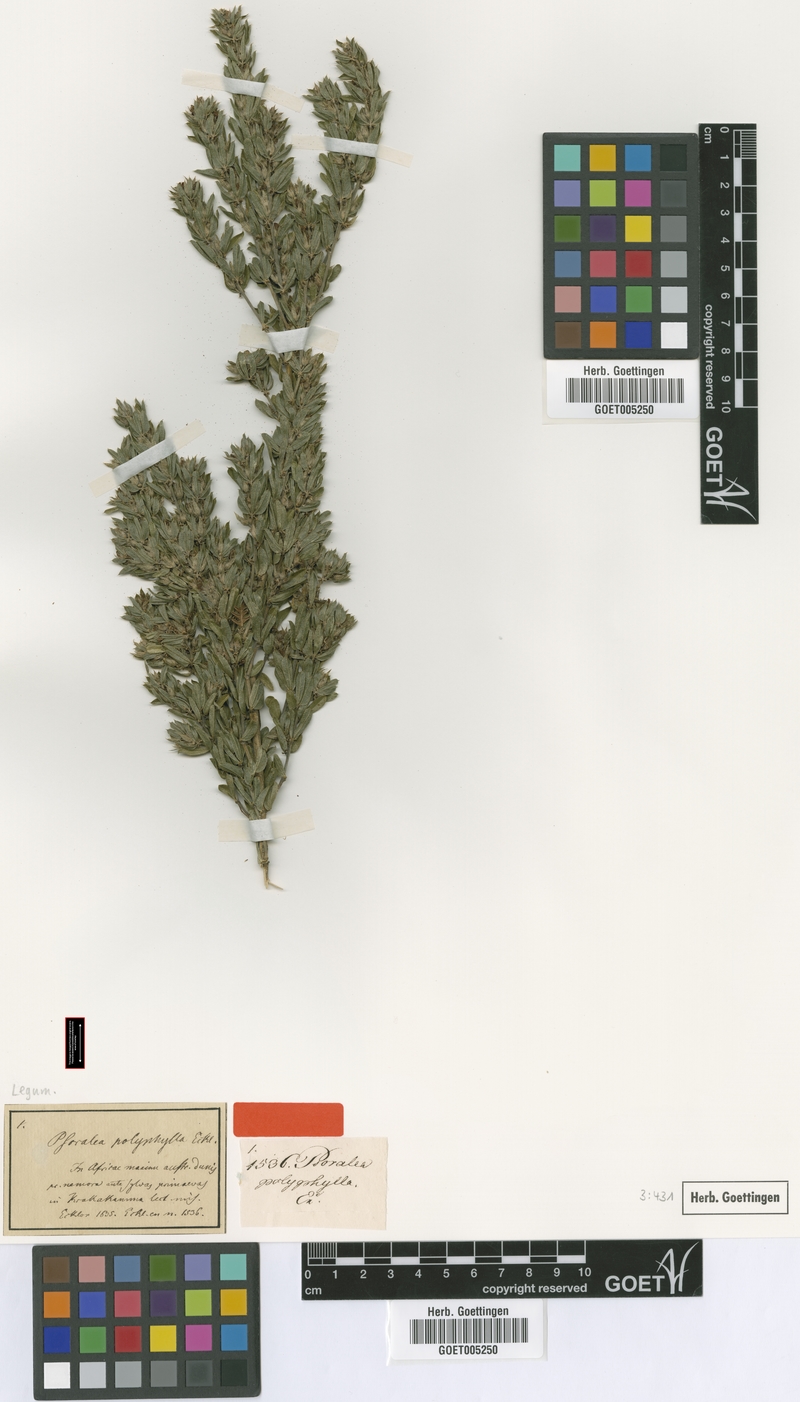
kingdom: Plantae
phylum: Tracheophyta
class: Magnoliopsida
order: Fabales
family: Fabaceae
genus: Psoralea
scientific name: Psoralea polyphylla
